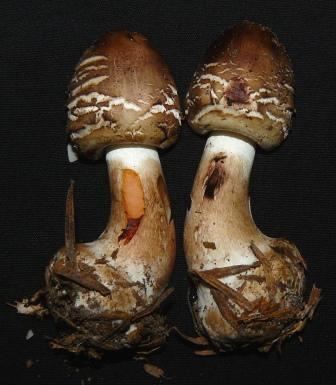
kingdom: Fungi
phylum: Basidiomycota
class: Agaricomycetes
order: Agaricales
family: Agaricaceae
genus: Chlorophyllum
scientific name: Chlorophyllum rhacodes
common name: ægte rabarberhat
